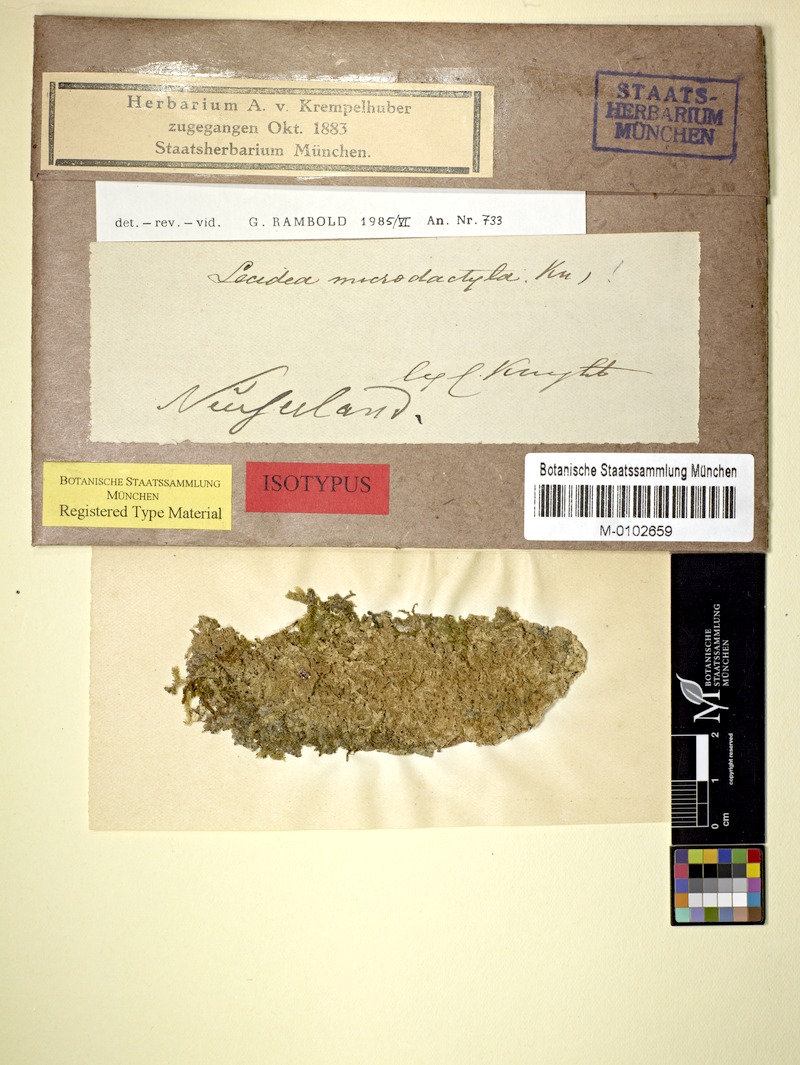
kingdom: Fungi
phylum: Ascomycota
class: Lecanoromycetes
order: Lecanorales
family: Ramalinaceae
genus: Phyllopsora
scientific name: Phyllopsora microdactyla
